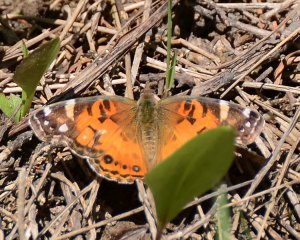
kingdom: Animalia
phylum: Arthropoda
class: Insecta
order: Lepidoptera
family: Nymphalidae
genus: Vanessa
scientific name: Vanessa virginiensis
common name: American Lady
